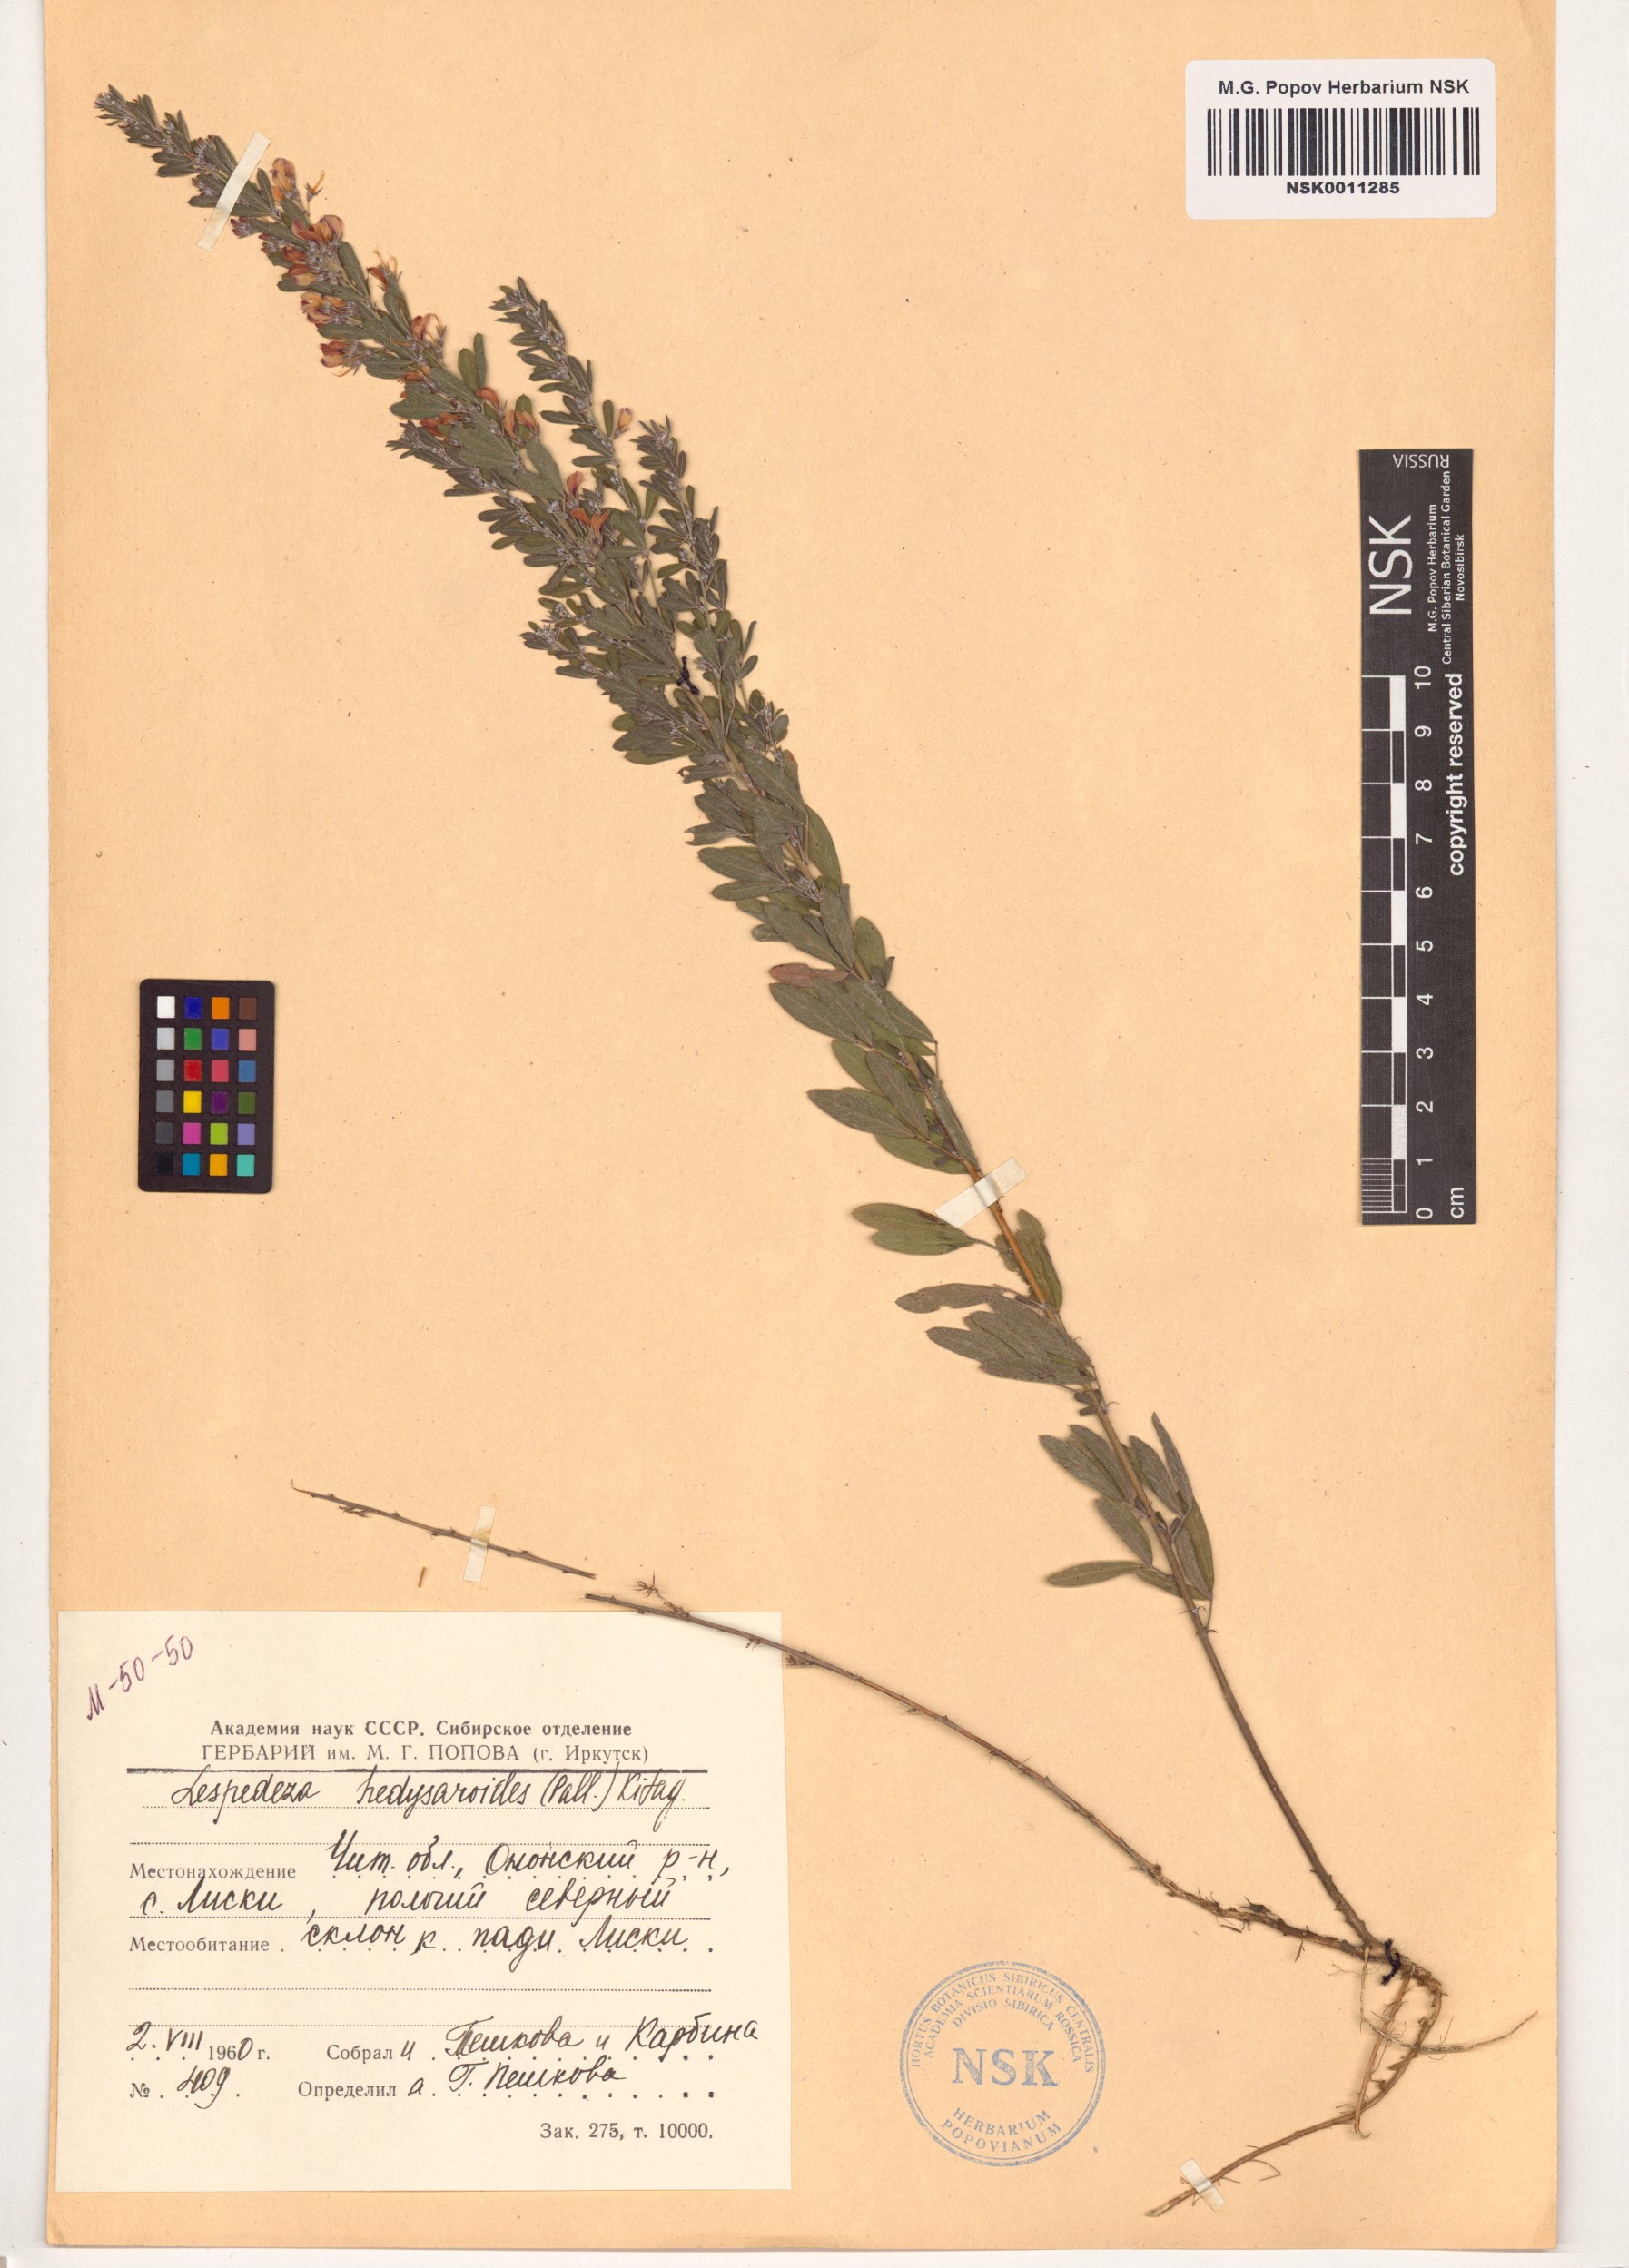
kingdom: Plantae
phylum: Tracheophyta
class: Magnoliopsida
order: Fabales
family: Fabaceae
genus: Lespedeza
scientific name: Lespedeza juncea
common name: Siberian lespedeza
